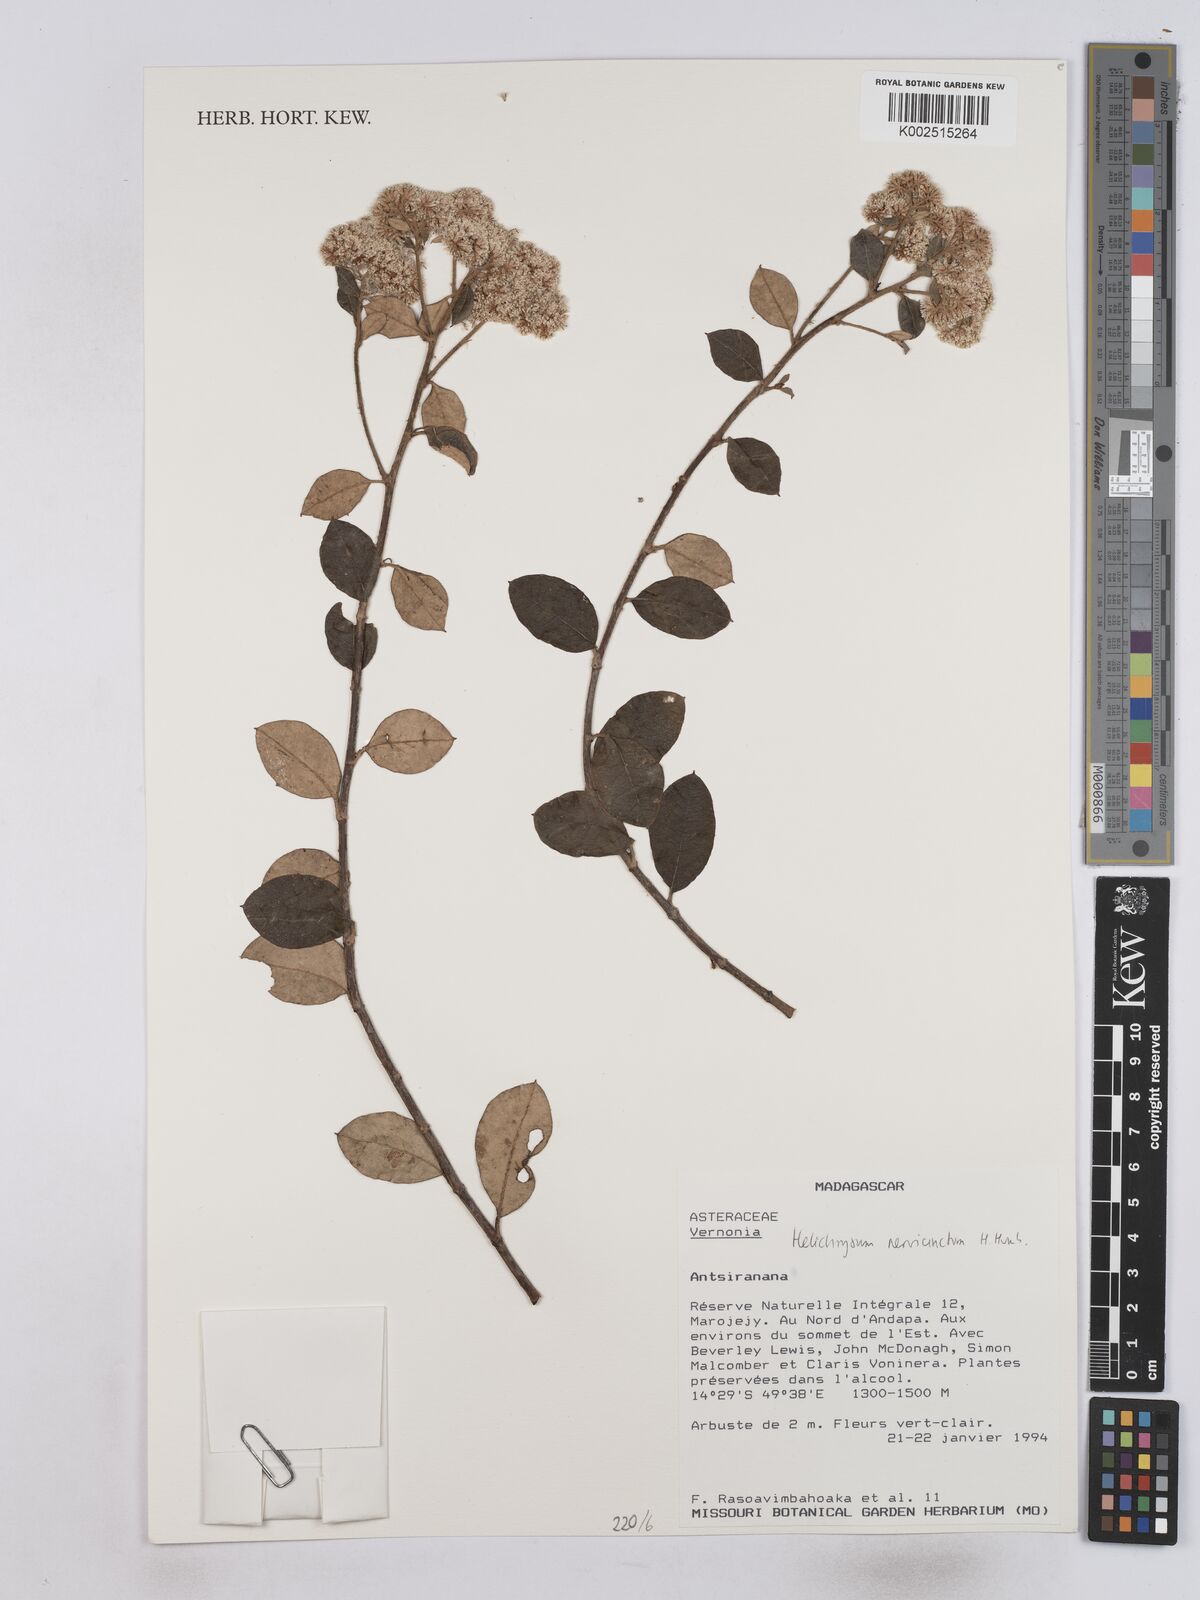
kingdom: Plantae
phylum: Tracheophyta
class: Magnoliopsida
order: Asterales
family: Asteraceae
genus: Helichrysum
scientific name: Helichrysum nervicinctum
